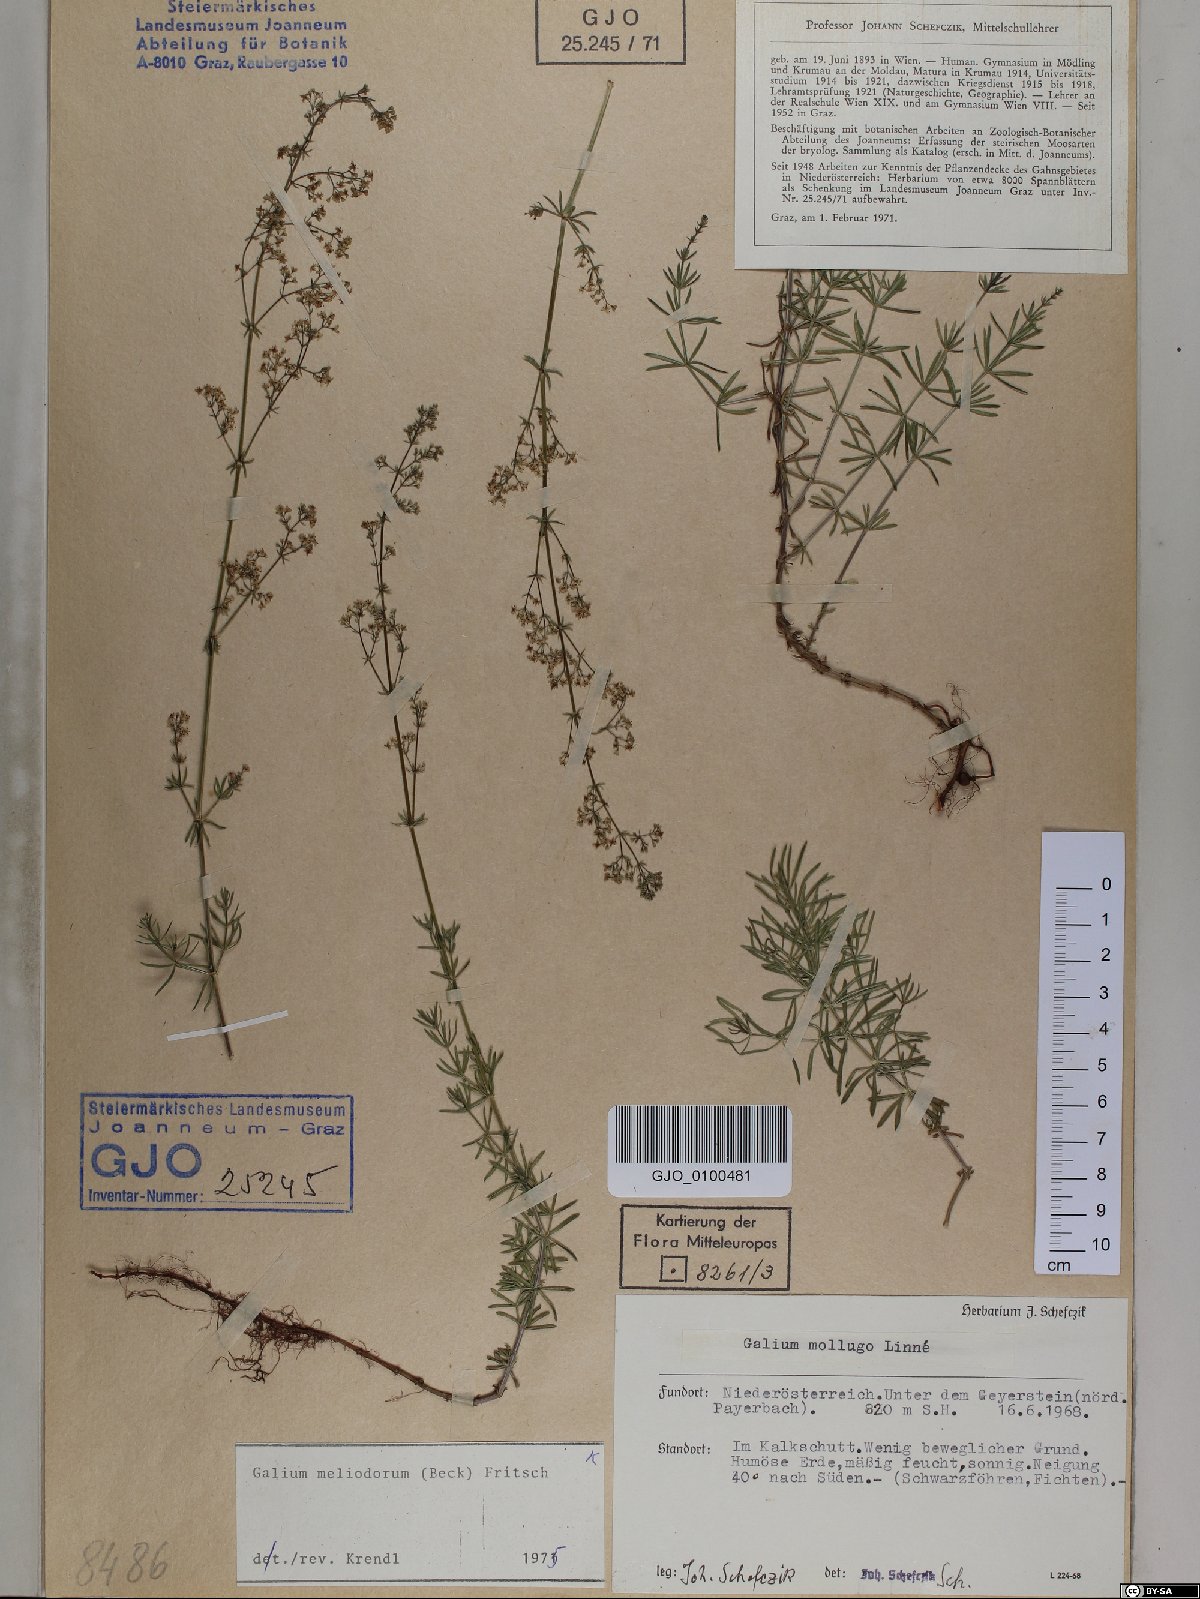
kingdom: Plantae
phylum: Tracheophyta
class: Magnoliopsida
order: Gentianales
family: Rubiaceae
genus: Galium
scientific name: Galium meliodorum
